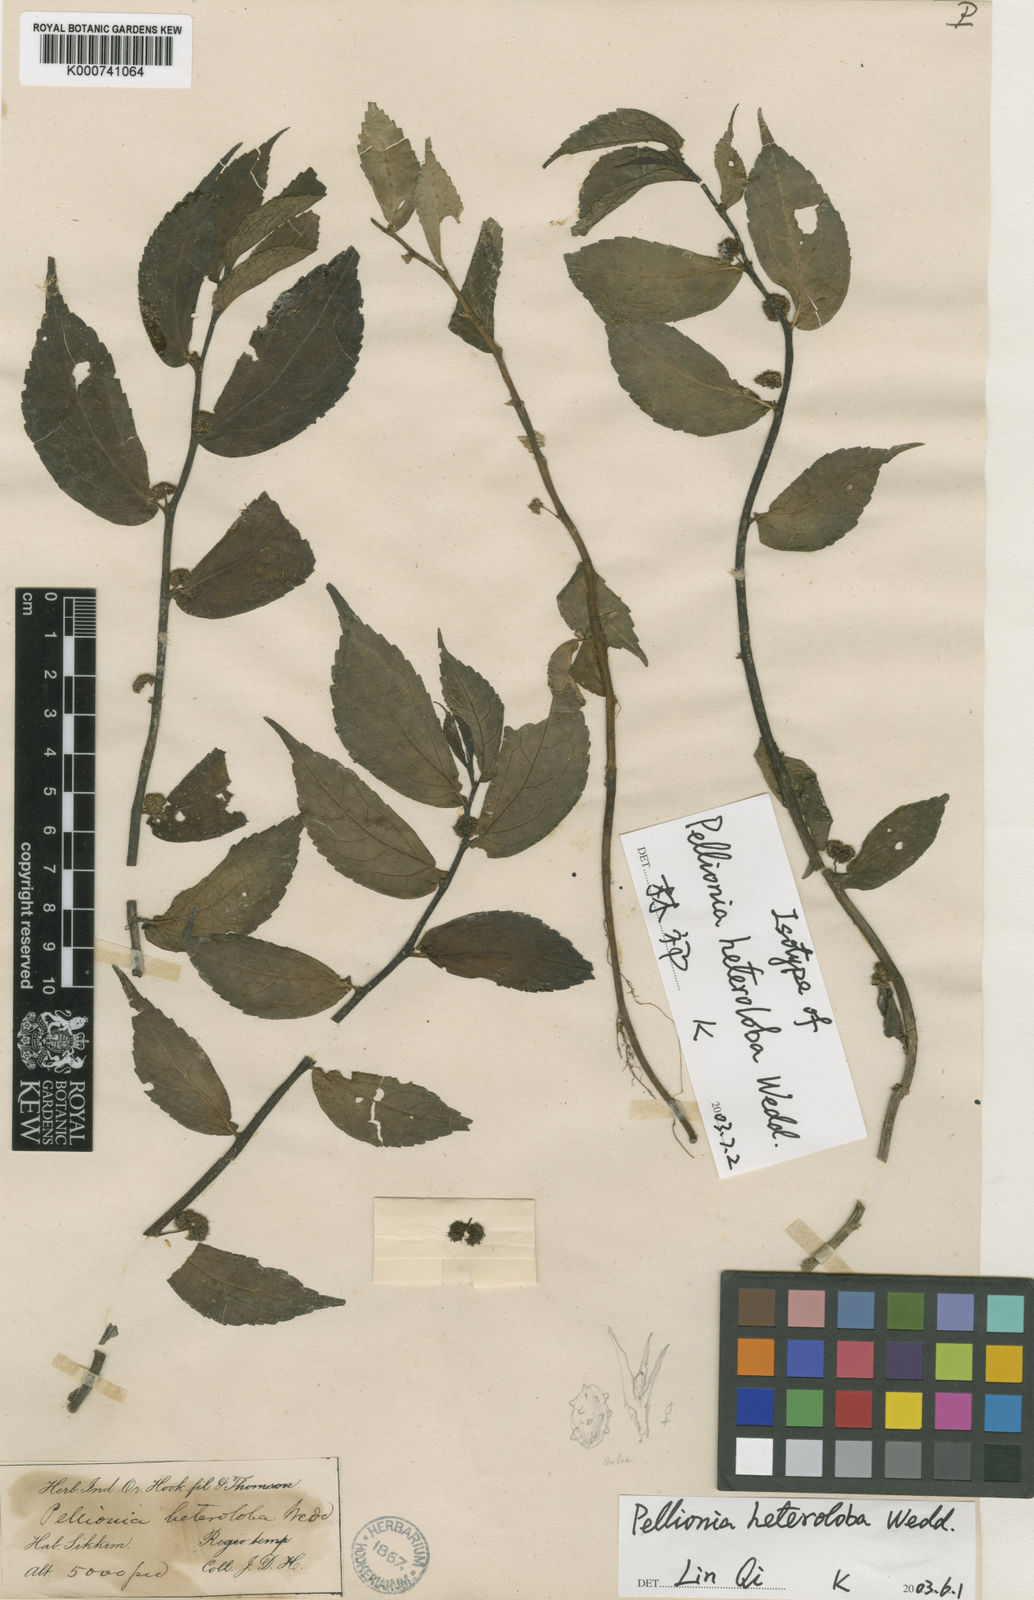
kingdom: Plantae
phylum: Tracheophyta
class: Magnoliopsida
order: Rosales
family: Urticaceae
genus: Elatostema
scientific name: Elatostema heterolobum
